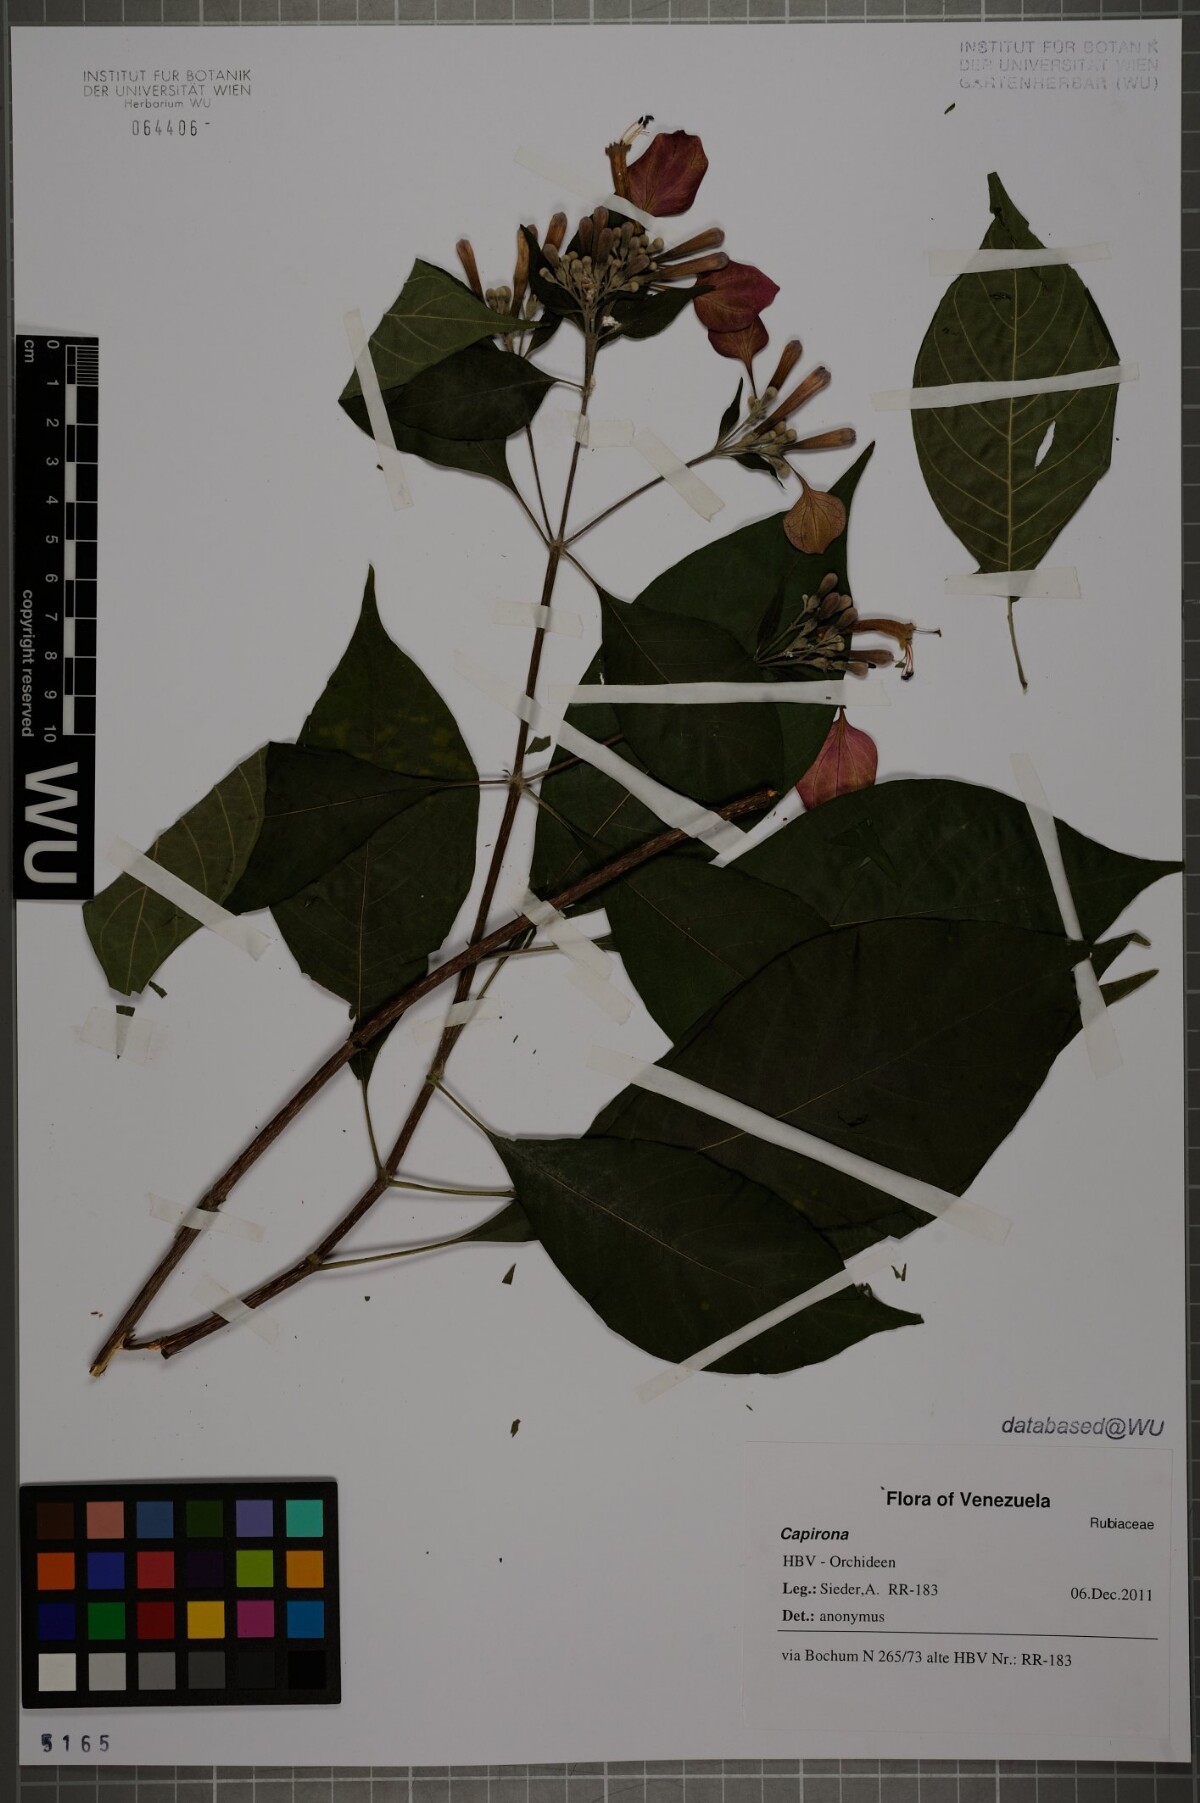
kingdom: Plantae
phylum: Tracheophyta
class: Magnoliopsida
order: Gentianales
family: Rubiaceae
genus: Capirona
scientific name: Capirona
